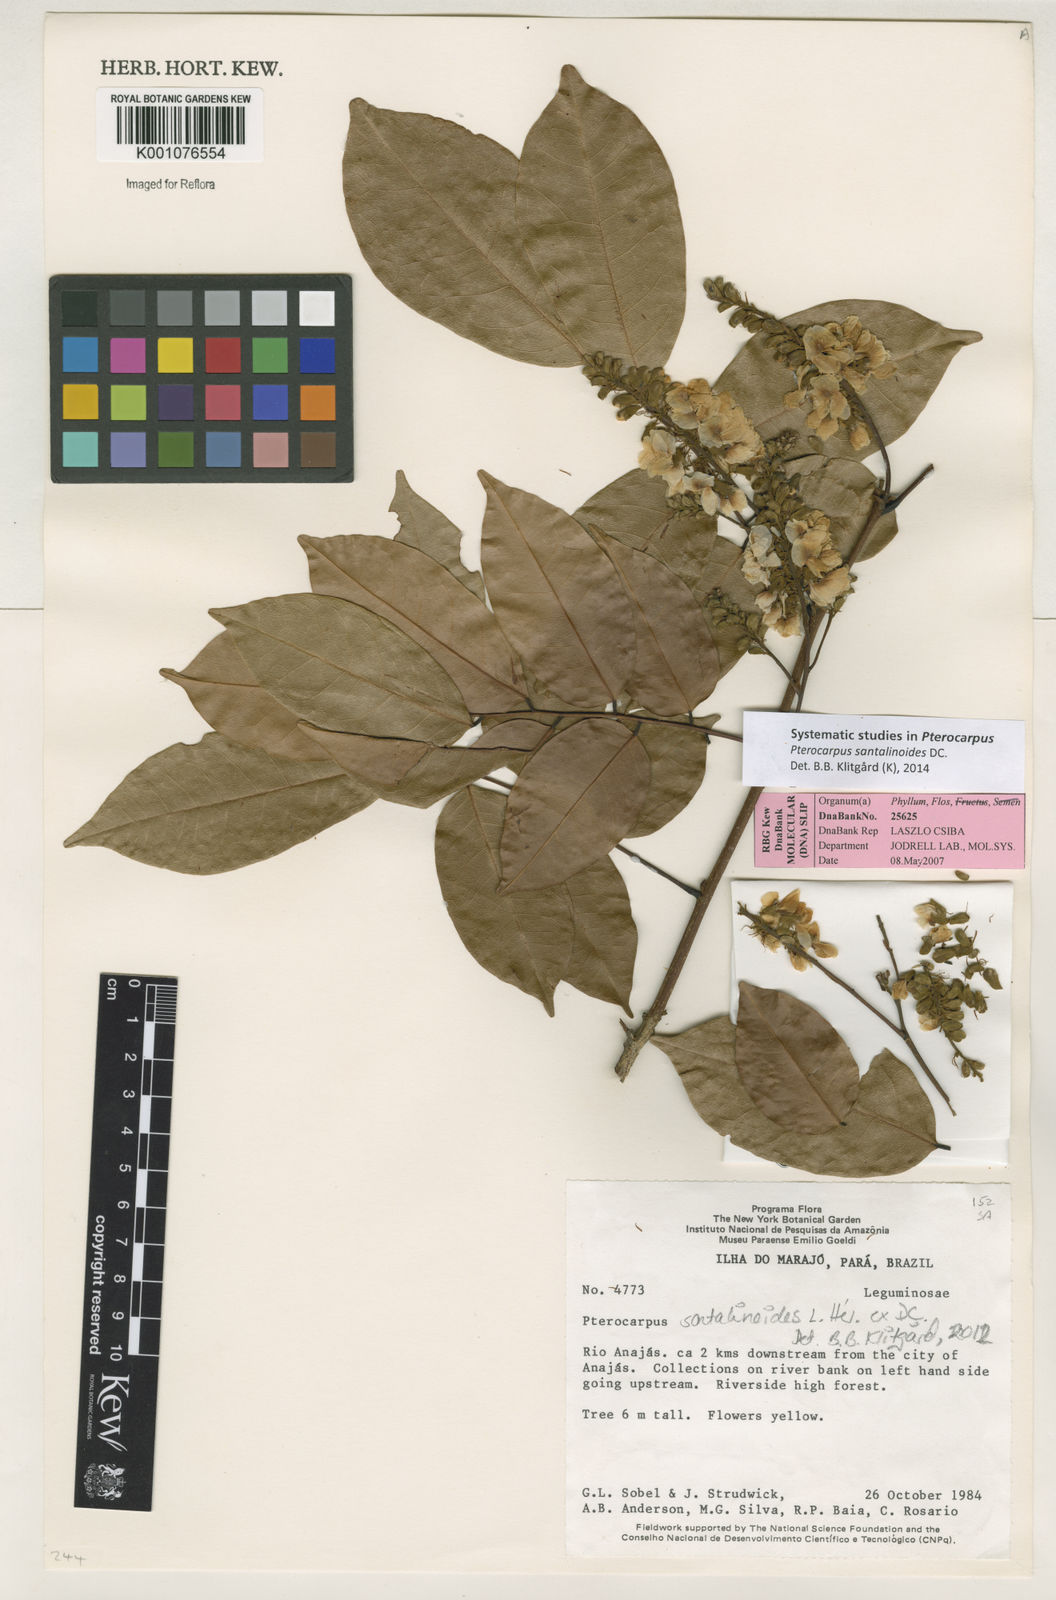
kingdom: Plantae
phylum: Tracheophyta
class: Magnoliopsida
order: Fabales
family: Fabaceae
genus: Pterocarpus
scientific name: Pterocarpus santalinoides
